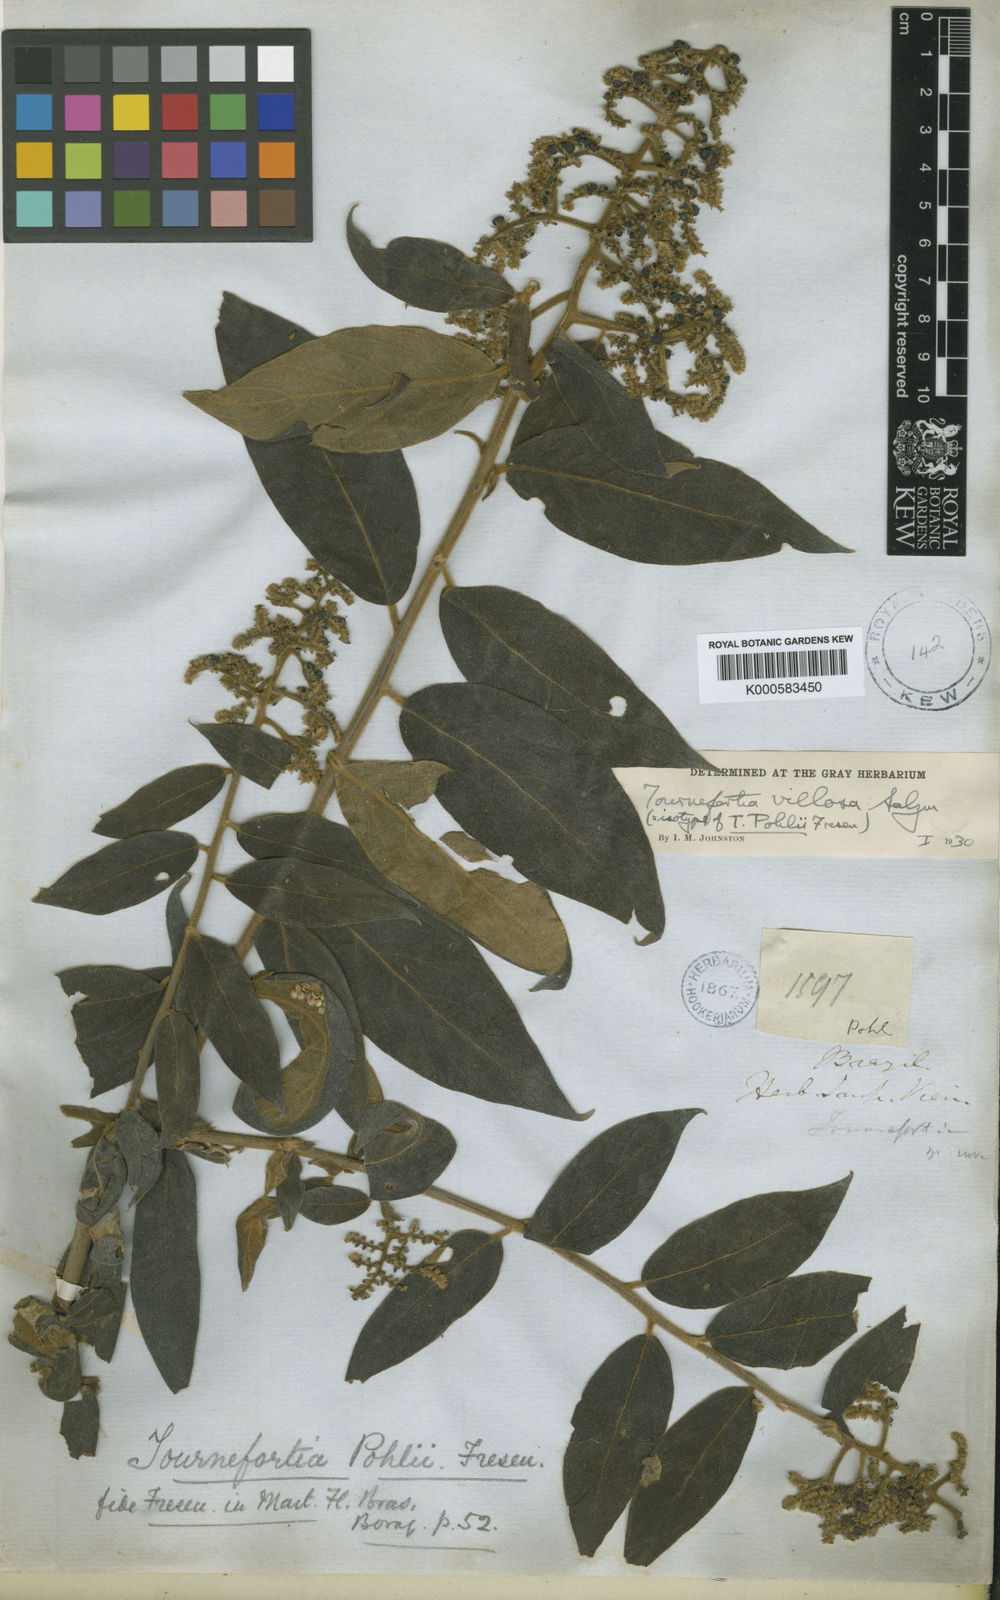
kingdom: Plantae
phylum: Tracheophyta
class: Magnoliopsida
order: Boraginales
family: Heliotropiaceae
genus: Myriopus
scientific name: Myriopus
